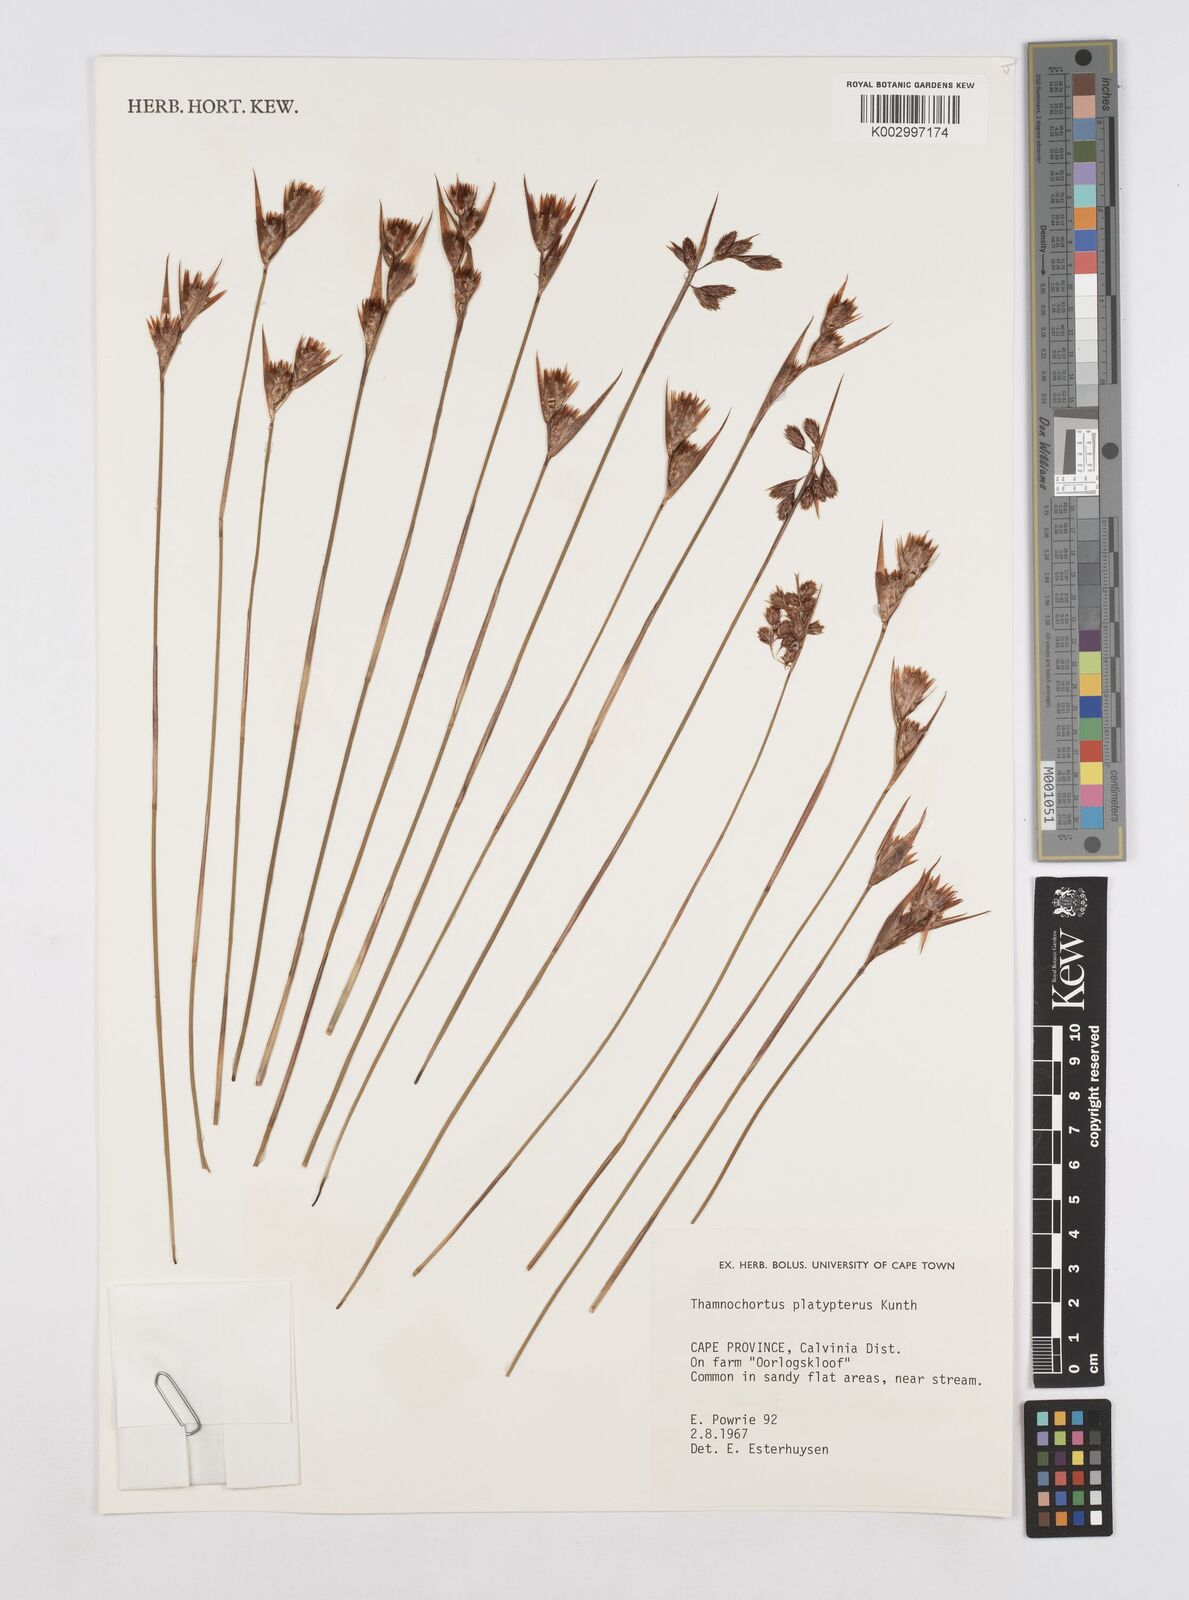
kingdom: Plantae
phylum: Tracheophyta
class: Liliopsida
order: Poales
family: Restionaceae
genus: Thamnochortus
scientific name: Thamnochortus platypteris
